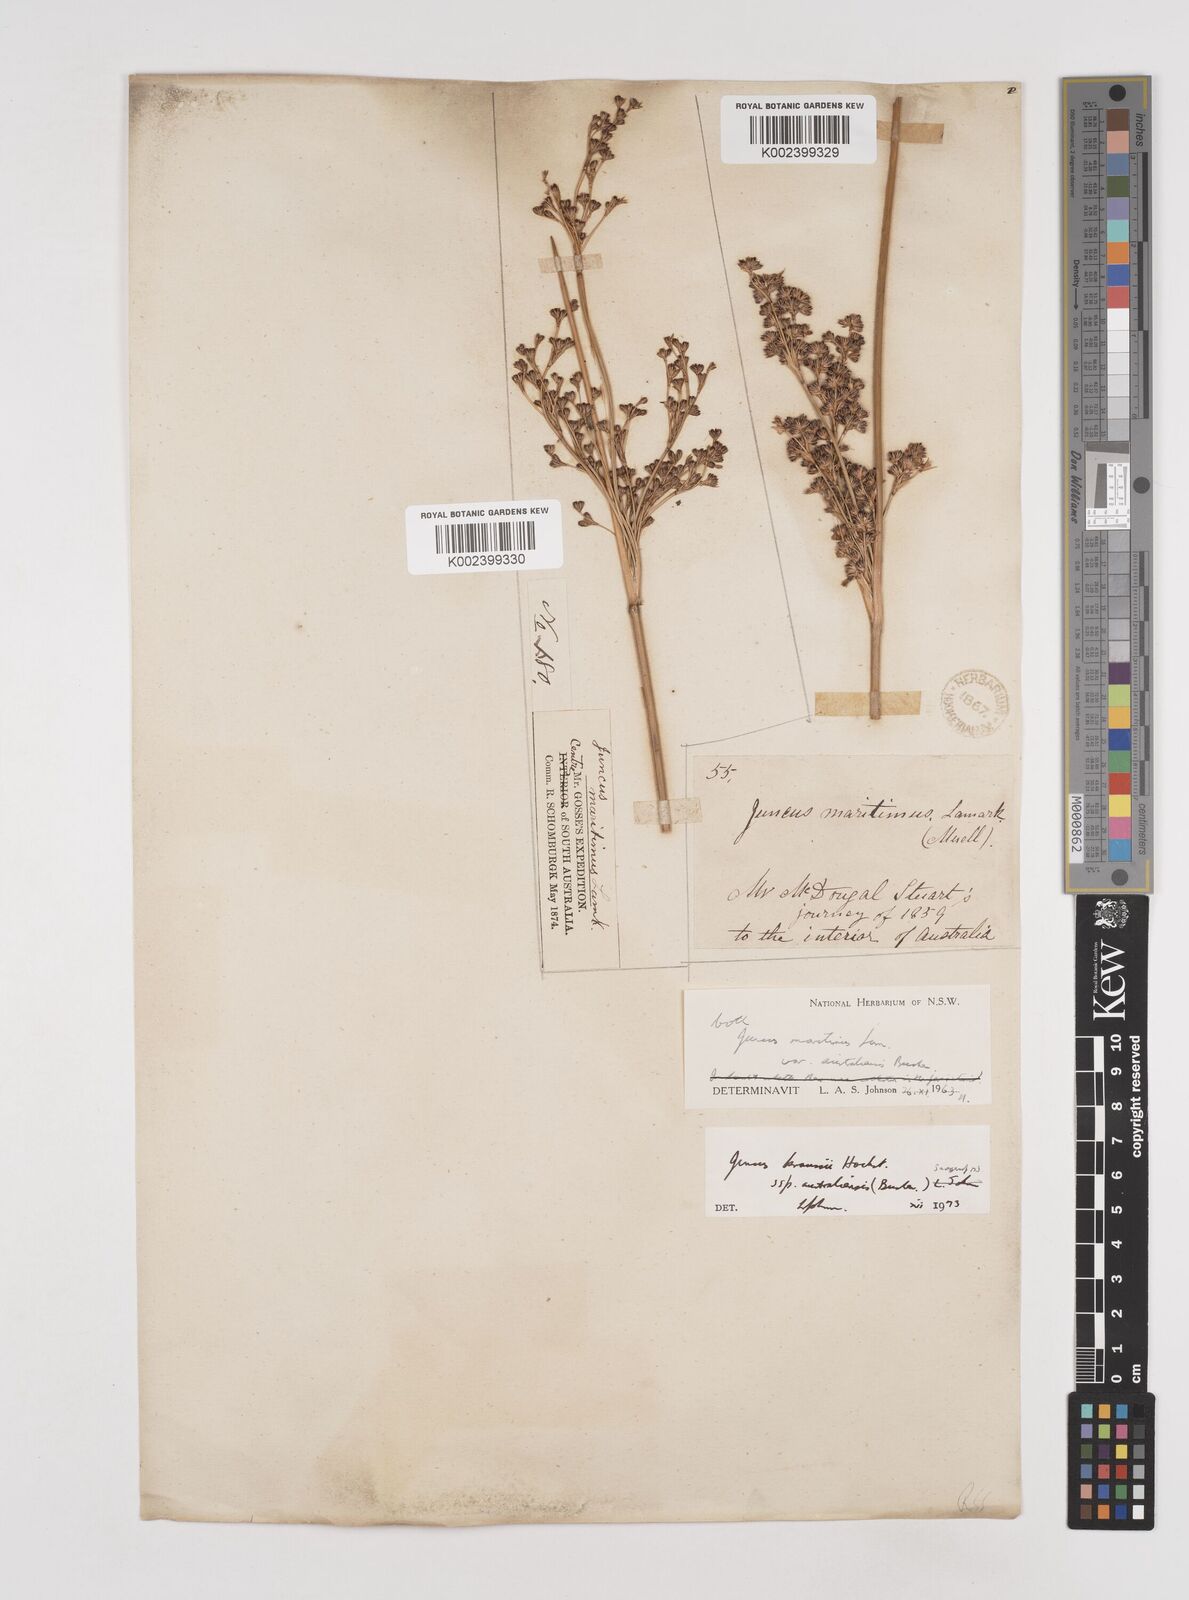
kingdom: Plantae
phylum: Tracheophyta
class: Liliopsida
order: Poales
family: Juncaceae
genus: Juncus
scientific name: Juncus kraussii
